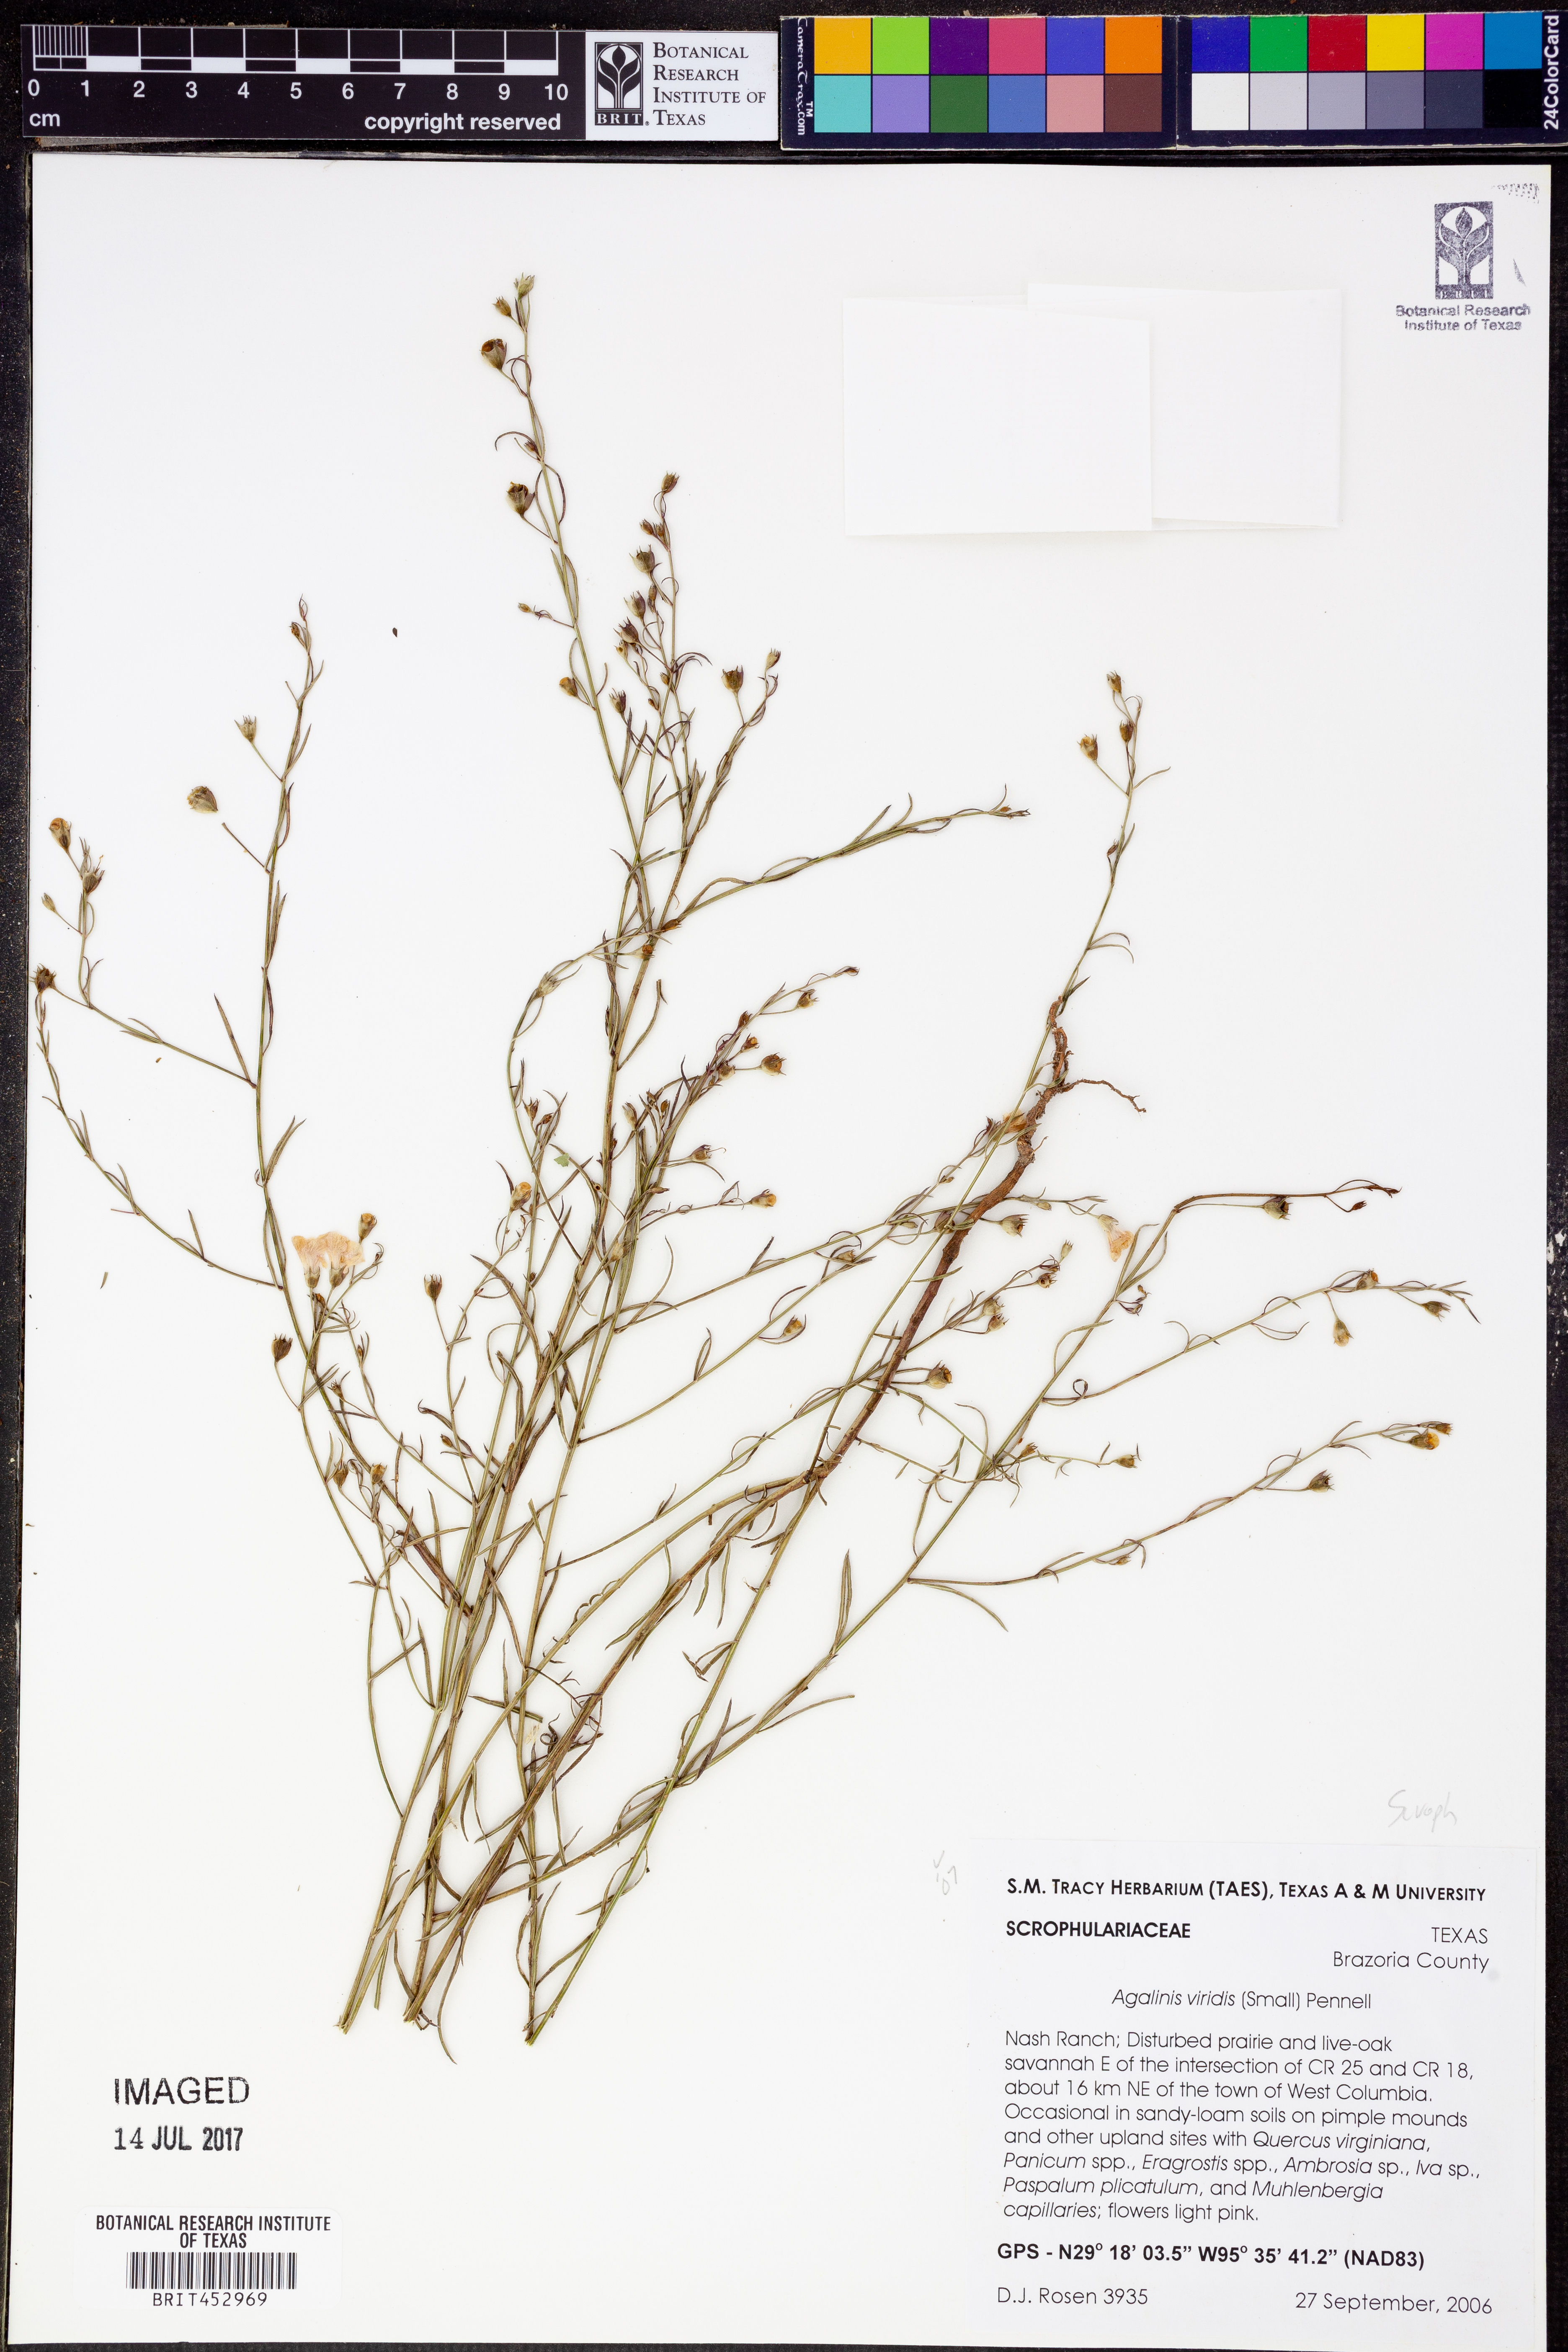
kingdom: Plantae
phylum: Tracheophyta
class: Magnoliopsida
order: Lamiales
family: Orobanchaceae
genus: Agalinis
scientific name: Agalinis viridis
